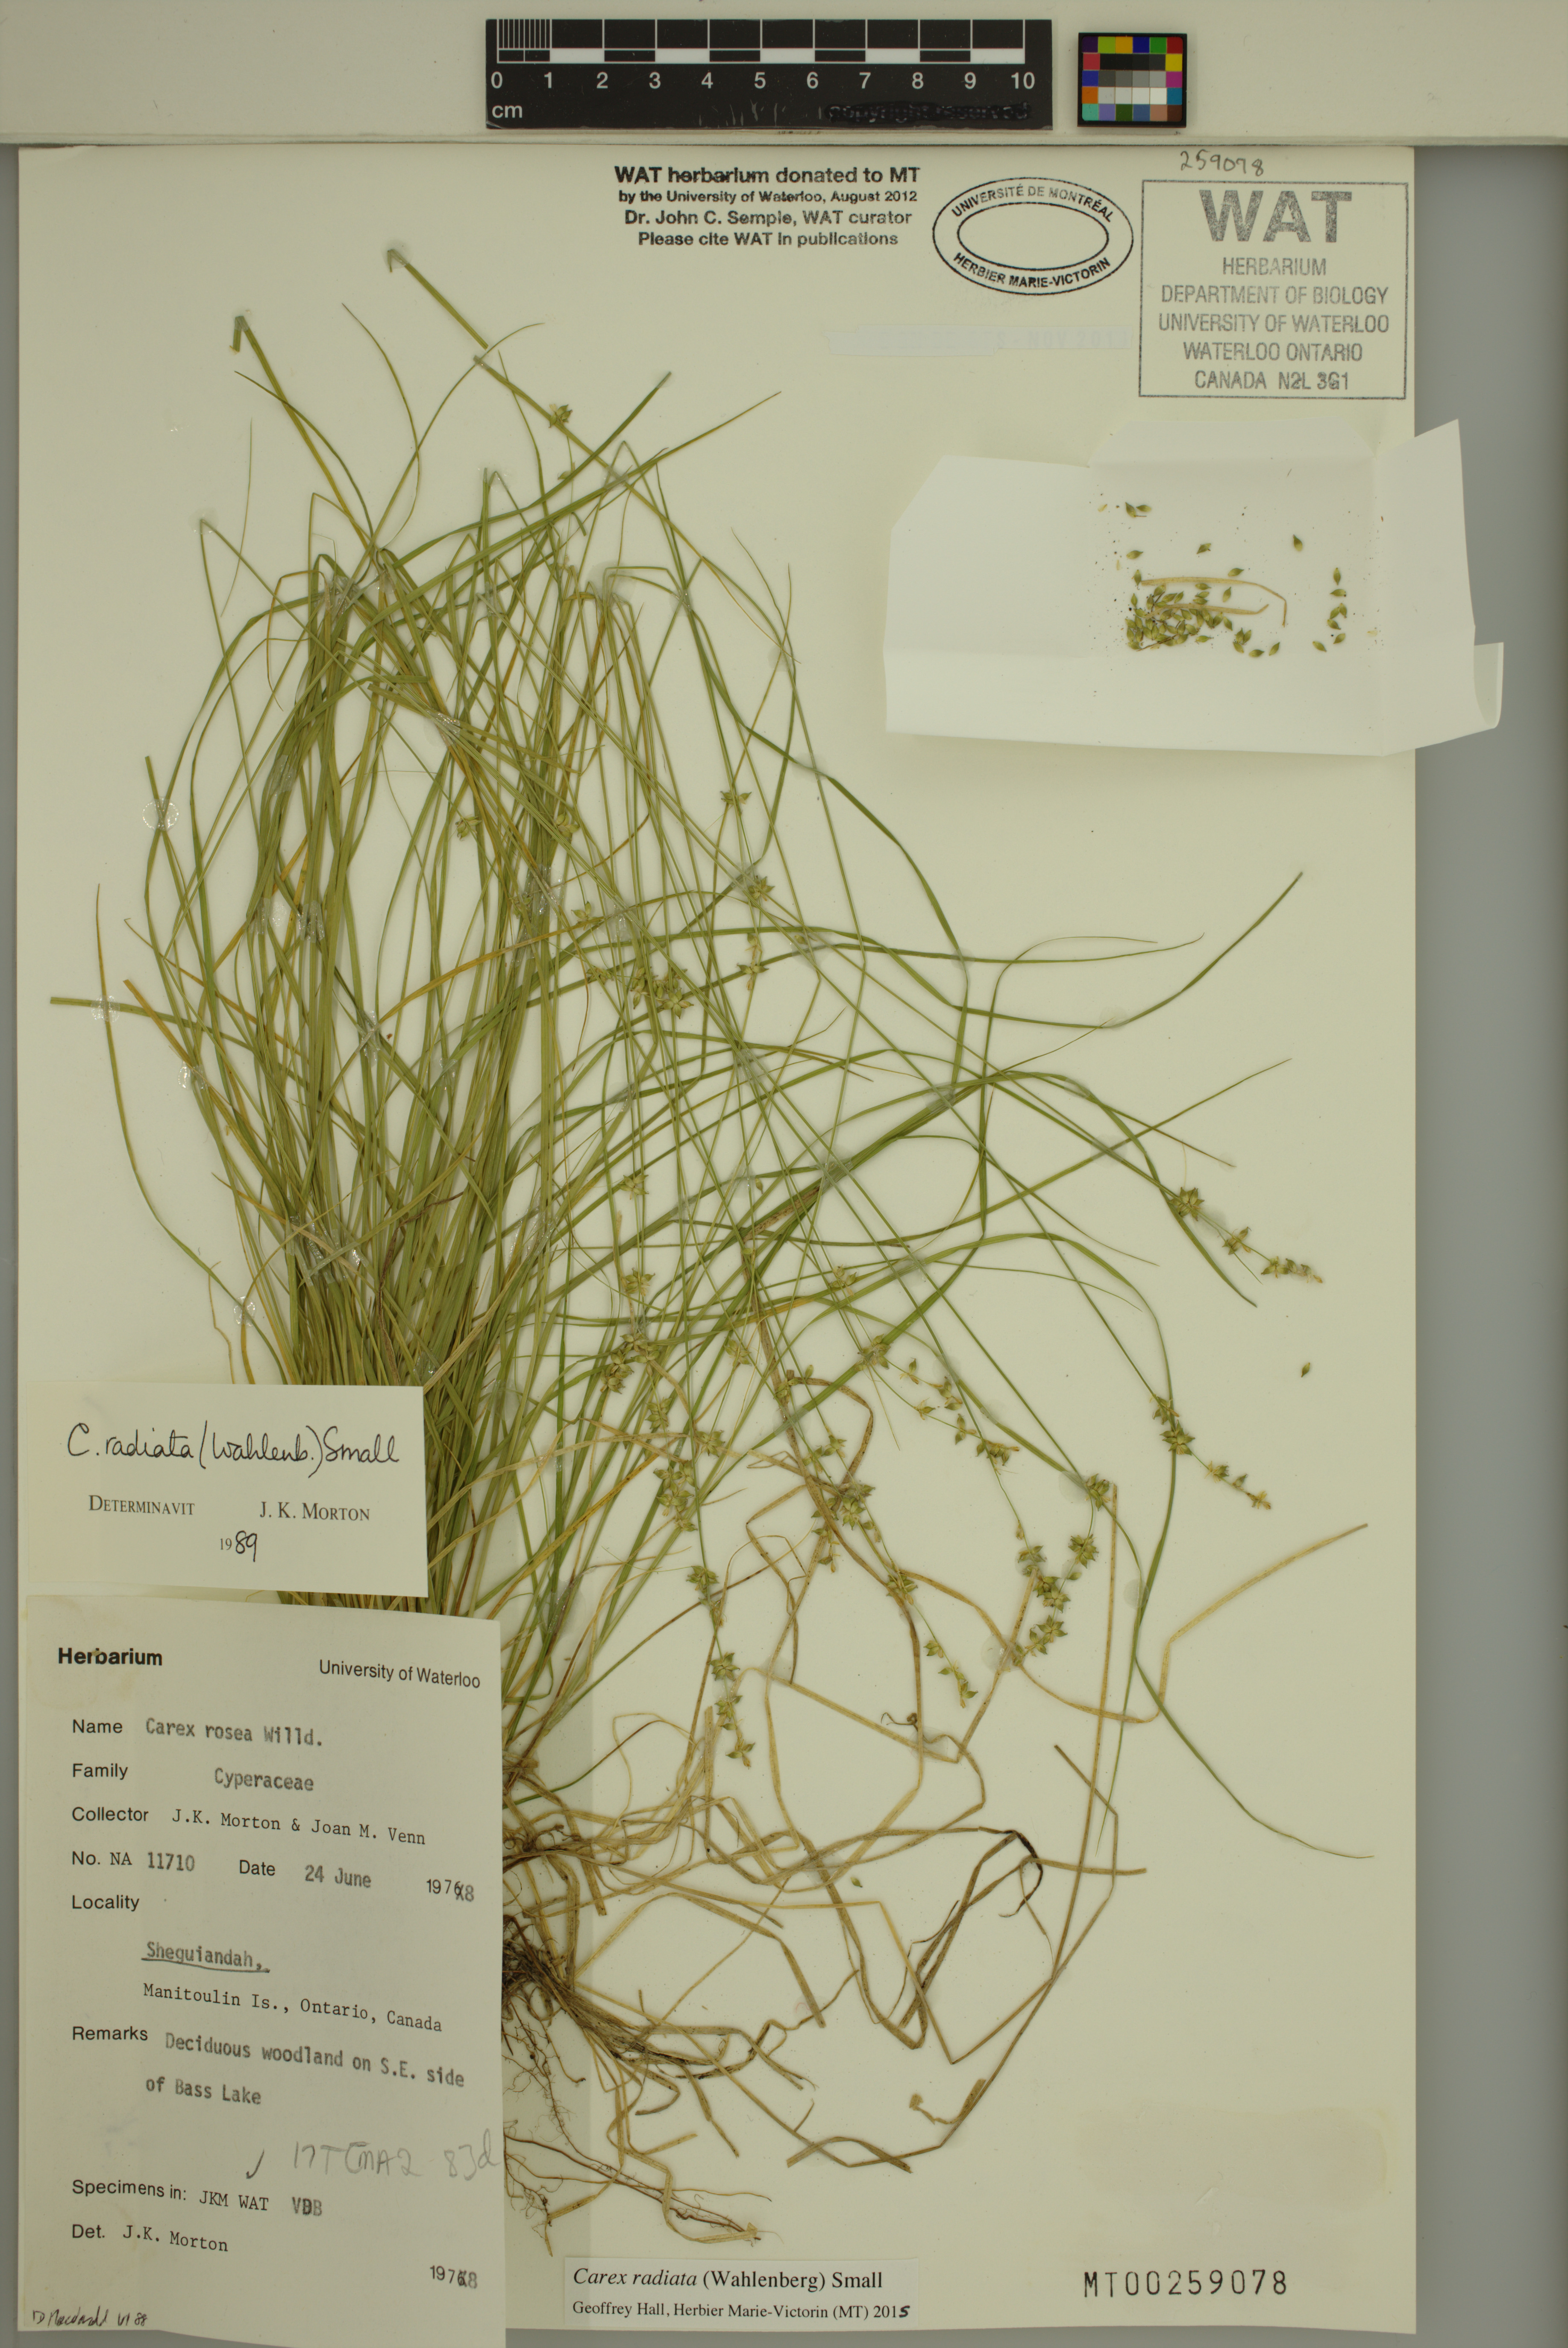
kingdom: Plantae
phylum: Tracheophyta
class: Liliopsida
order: Poales
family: Cyperaceae
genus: Carex
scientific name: Carex radiata
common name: Eastern star sedge
